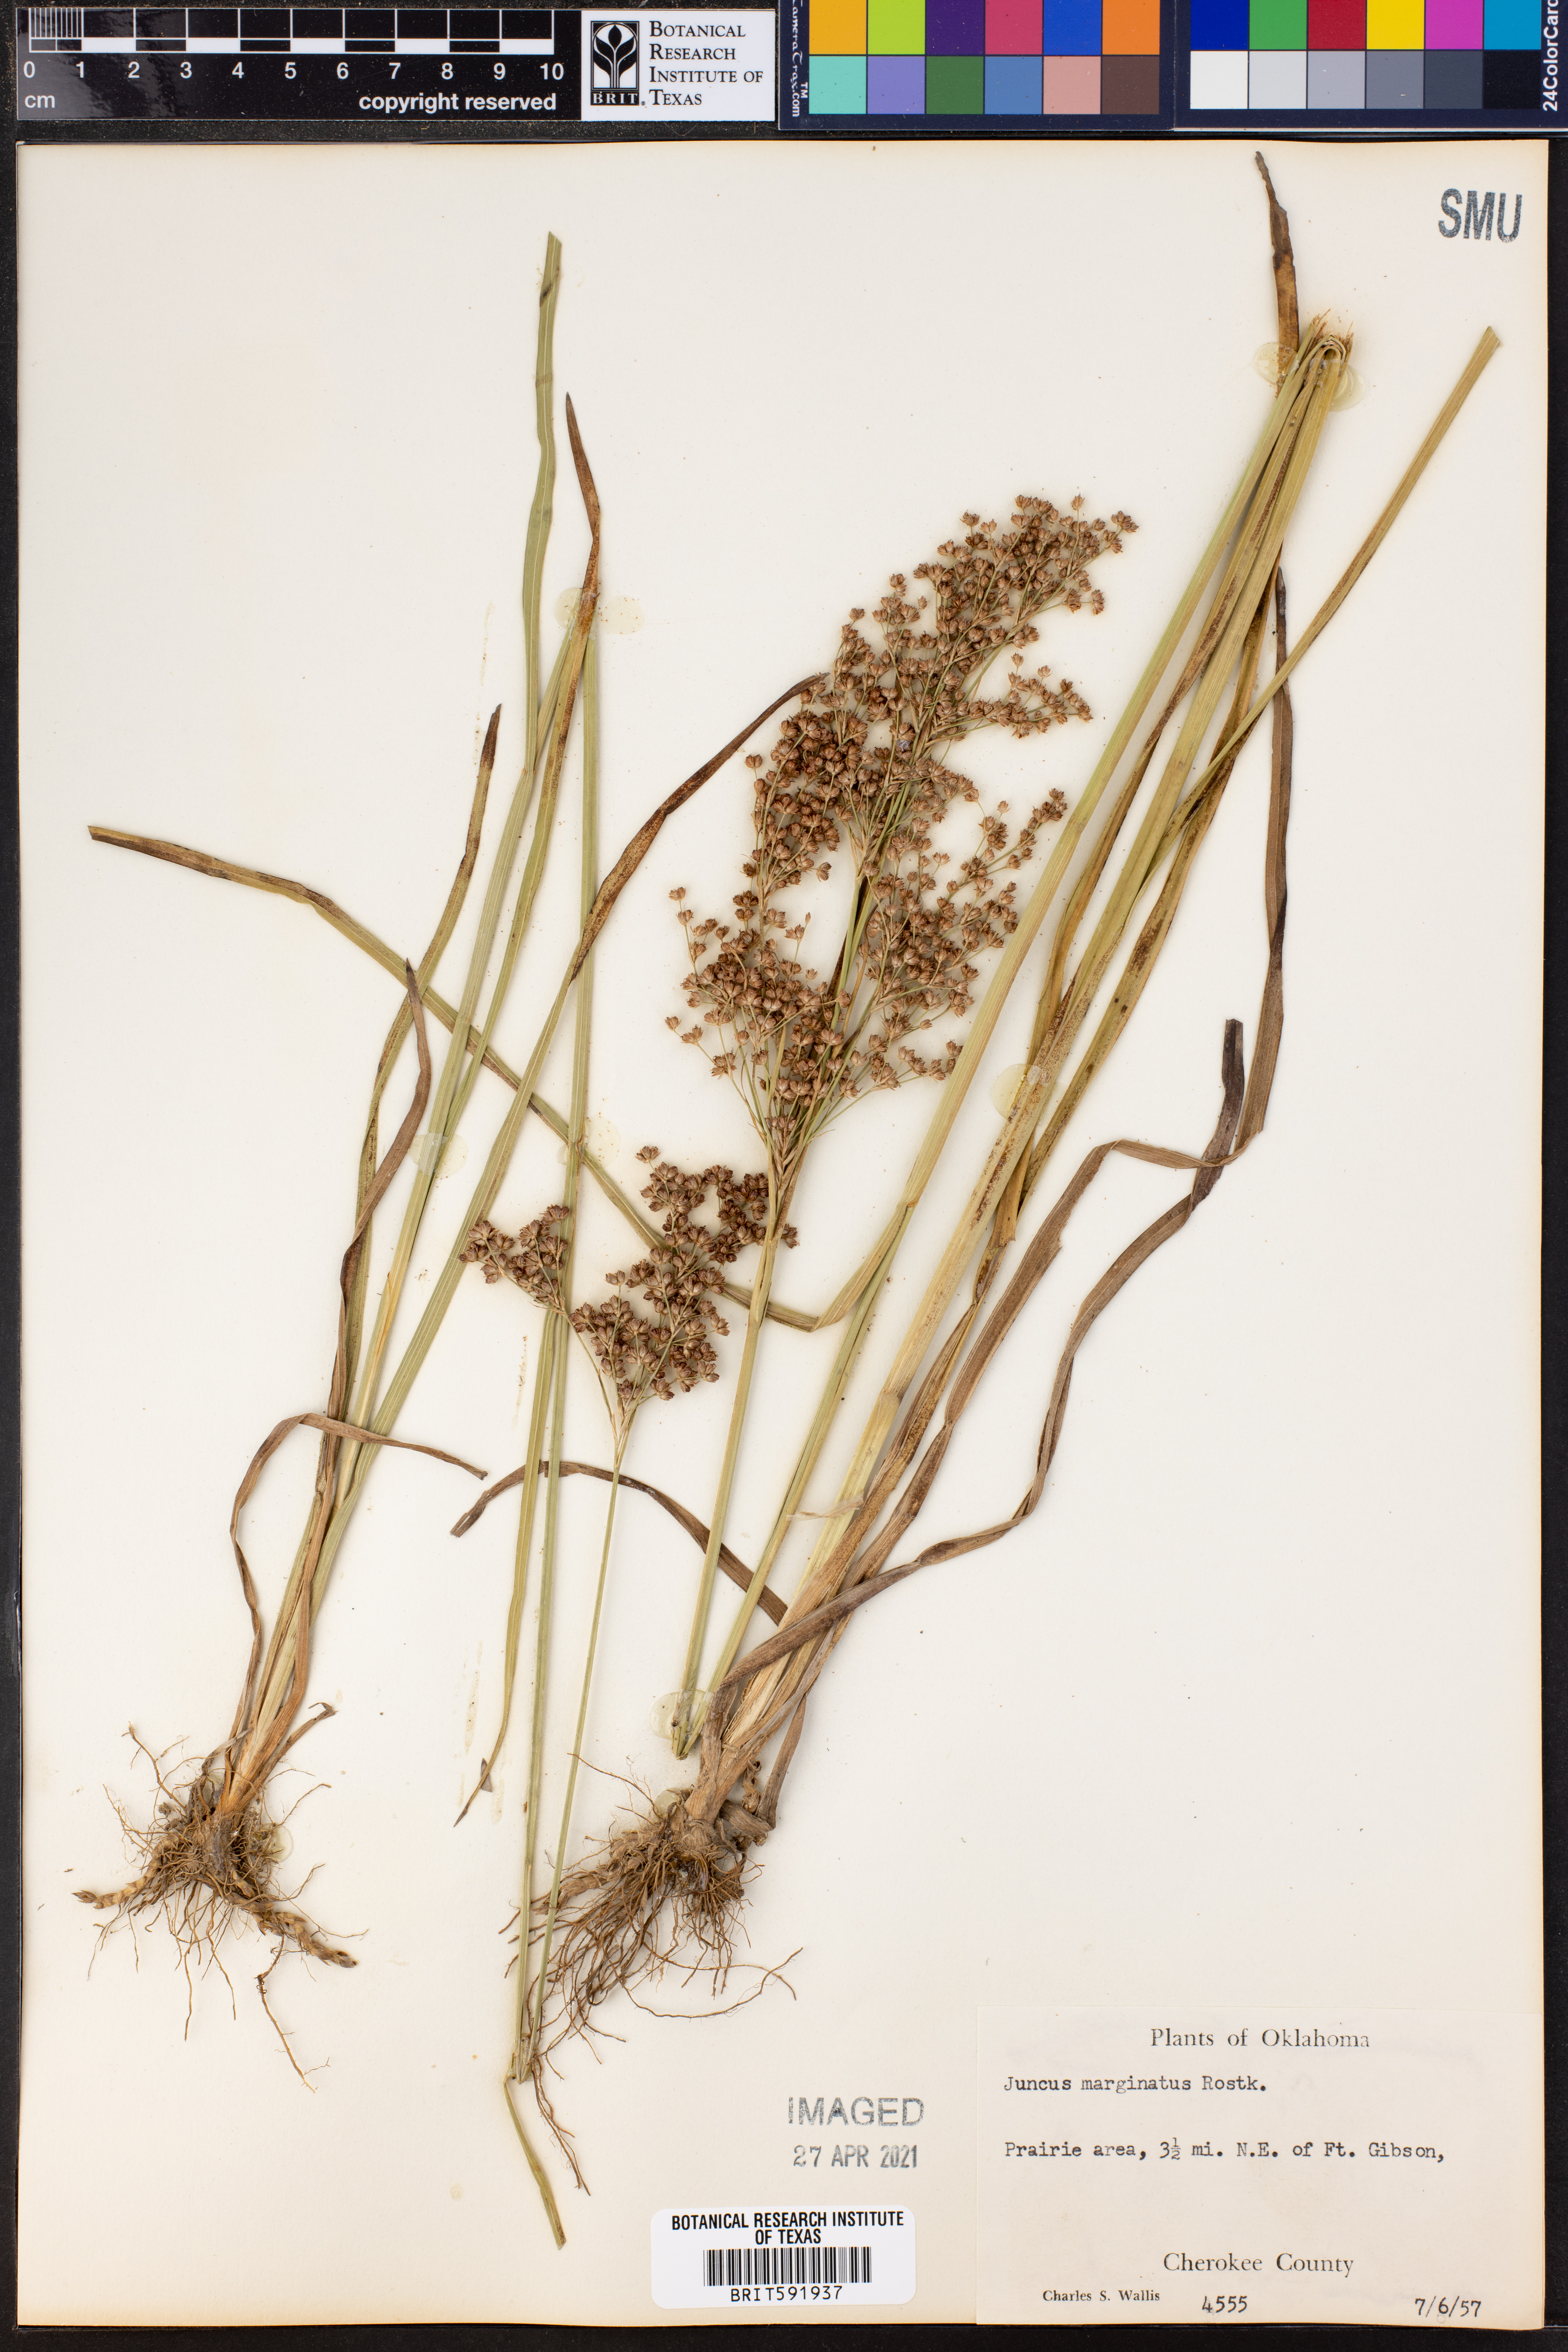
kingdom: Plantae
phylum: Tracheophyta
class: Liliopsida
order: Poales
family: Juncaceae
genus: Juncus
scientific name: Juncus marginatus
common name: Grass-leaf rush
